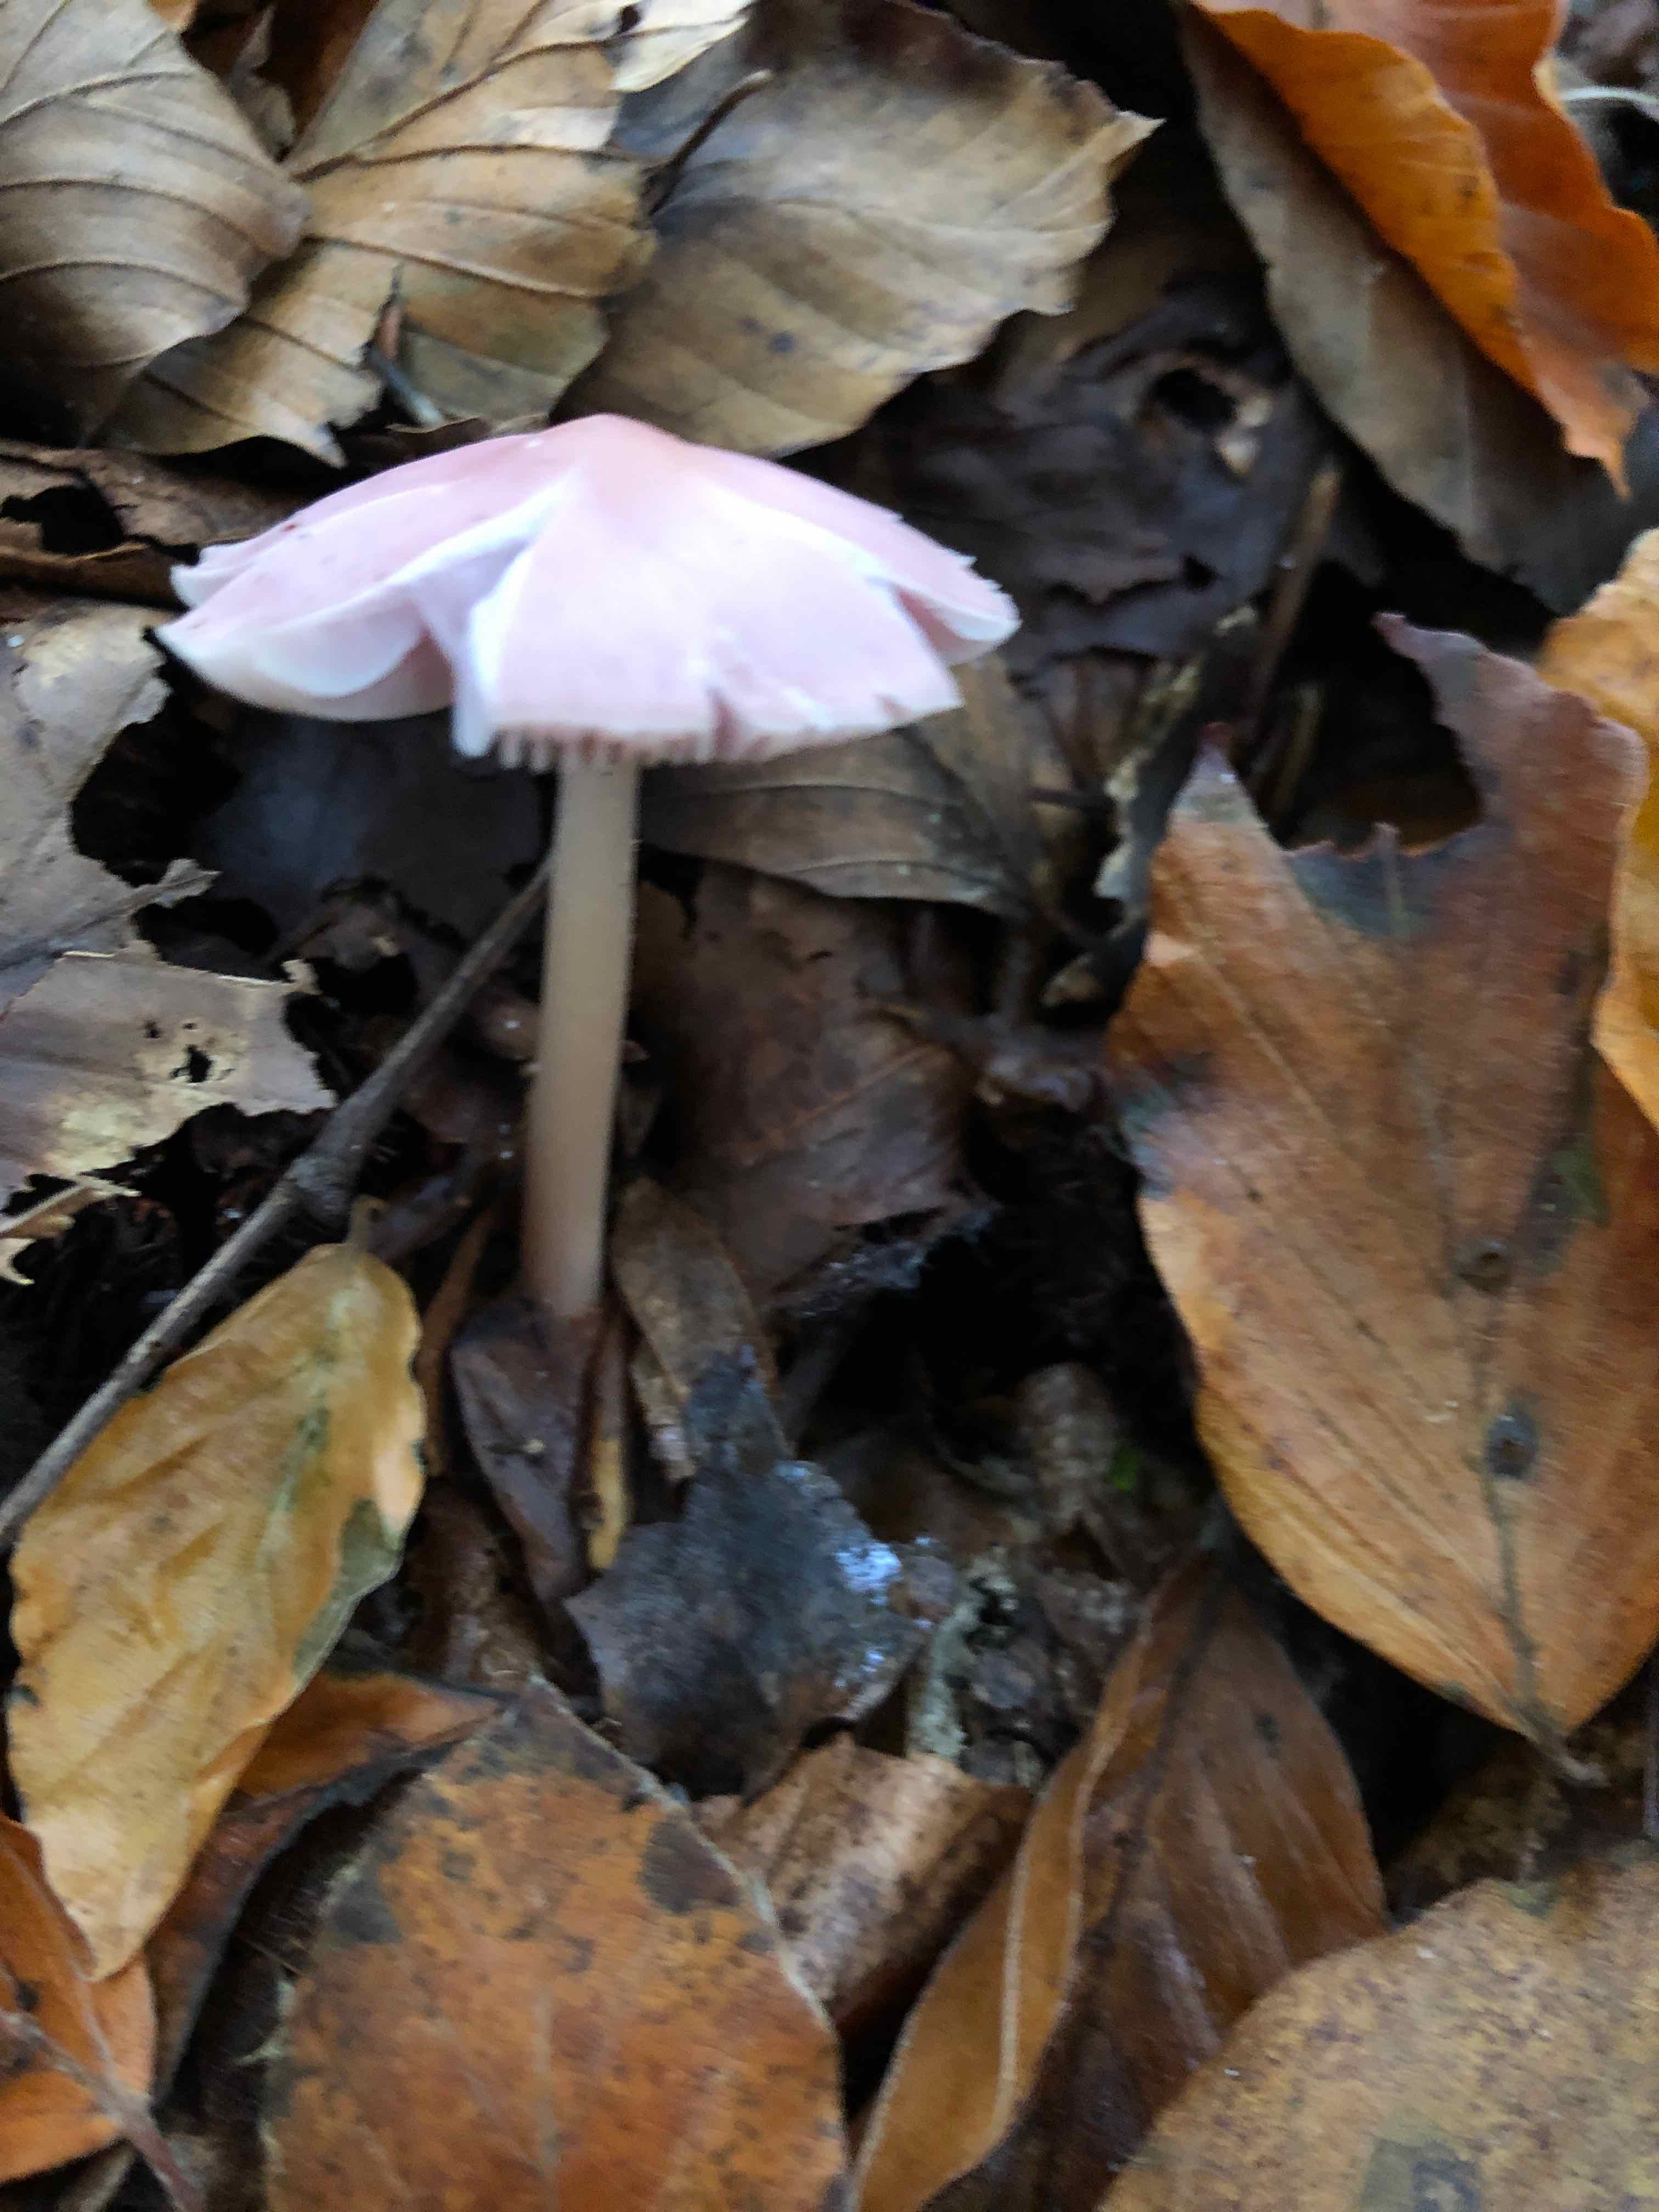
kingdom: Fungi
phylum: Basidiomycota
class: Agaricomycetes
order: Agaricales
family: Mycenaceae
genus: Mycena
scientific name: Mycena rosea
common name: rosa huesvamp
